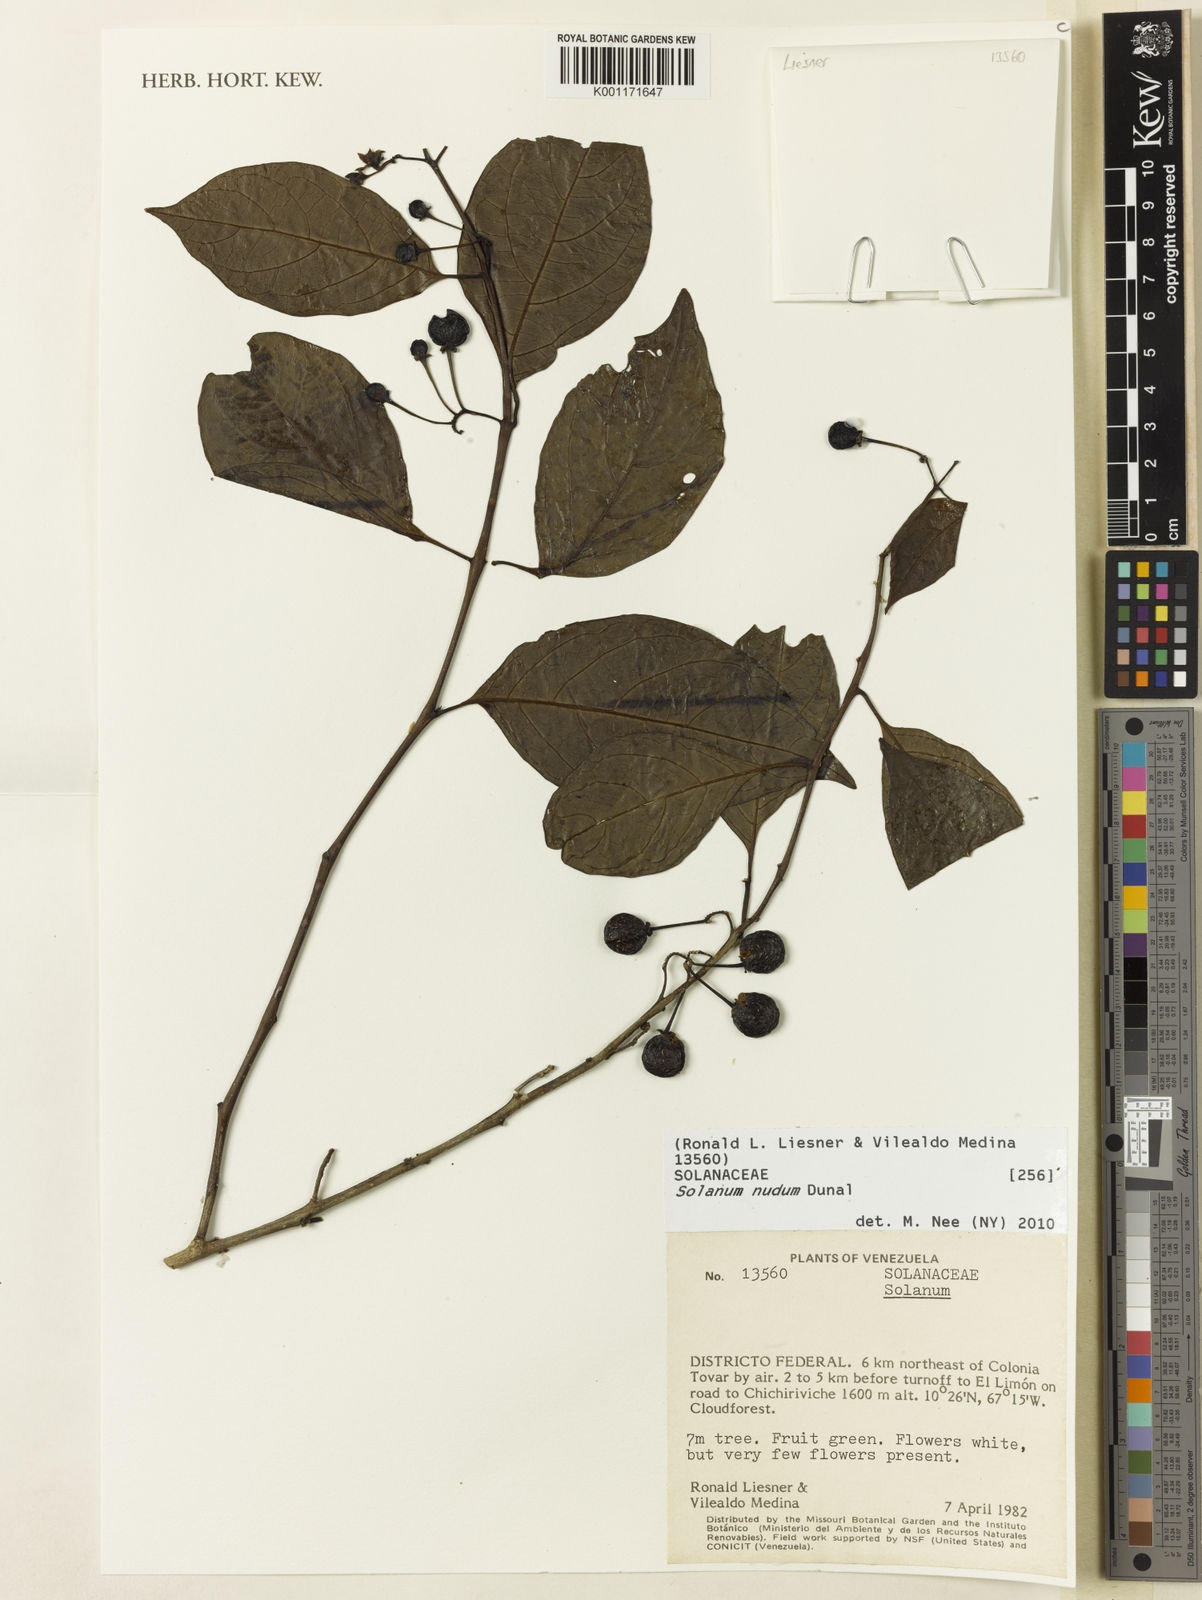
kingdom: Plantae
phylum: Tracheophyta
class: Magnoliopsida
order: Solanales
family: Solanaceae
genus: Solanum
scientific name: Solanum nudum
